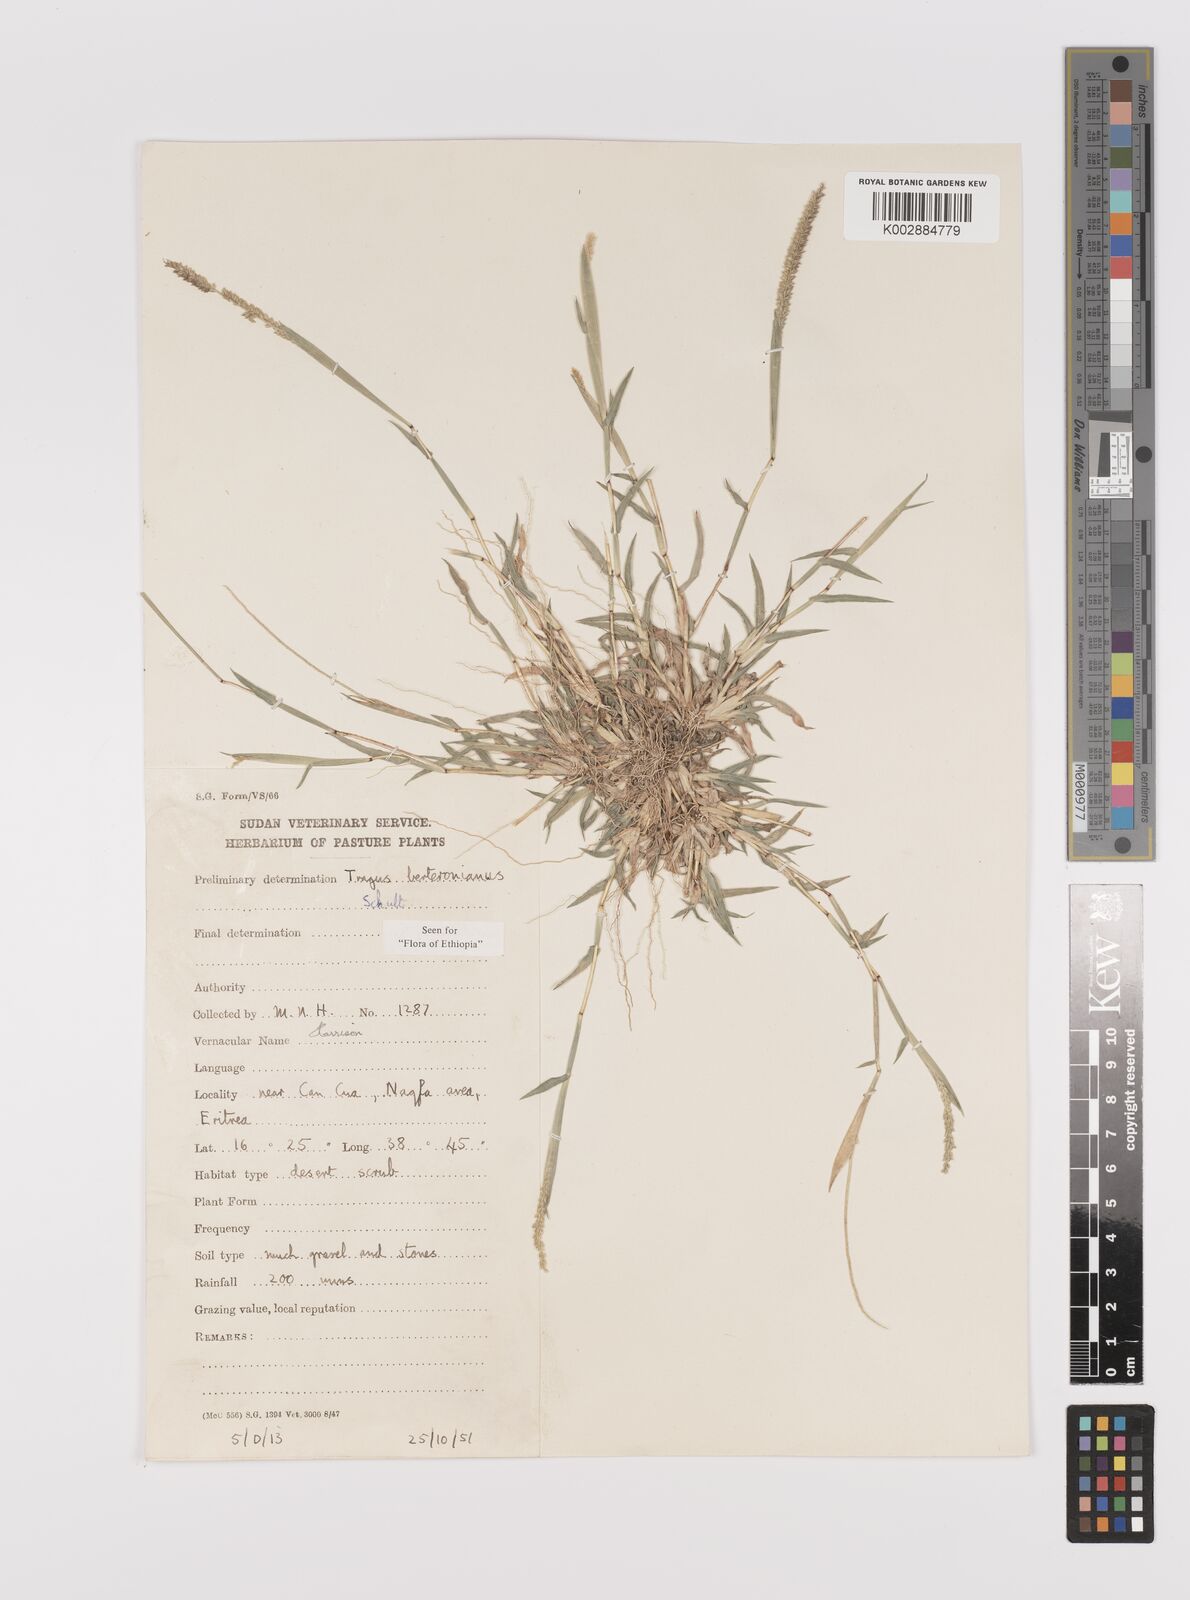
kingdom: Plantae
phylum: Tracheophyta
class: Liliopsida
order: Poales
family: Poaceae
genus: Tragus
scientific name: Tragus berteronianus
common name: African bur-grass
